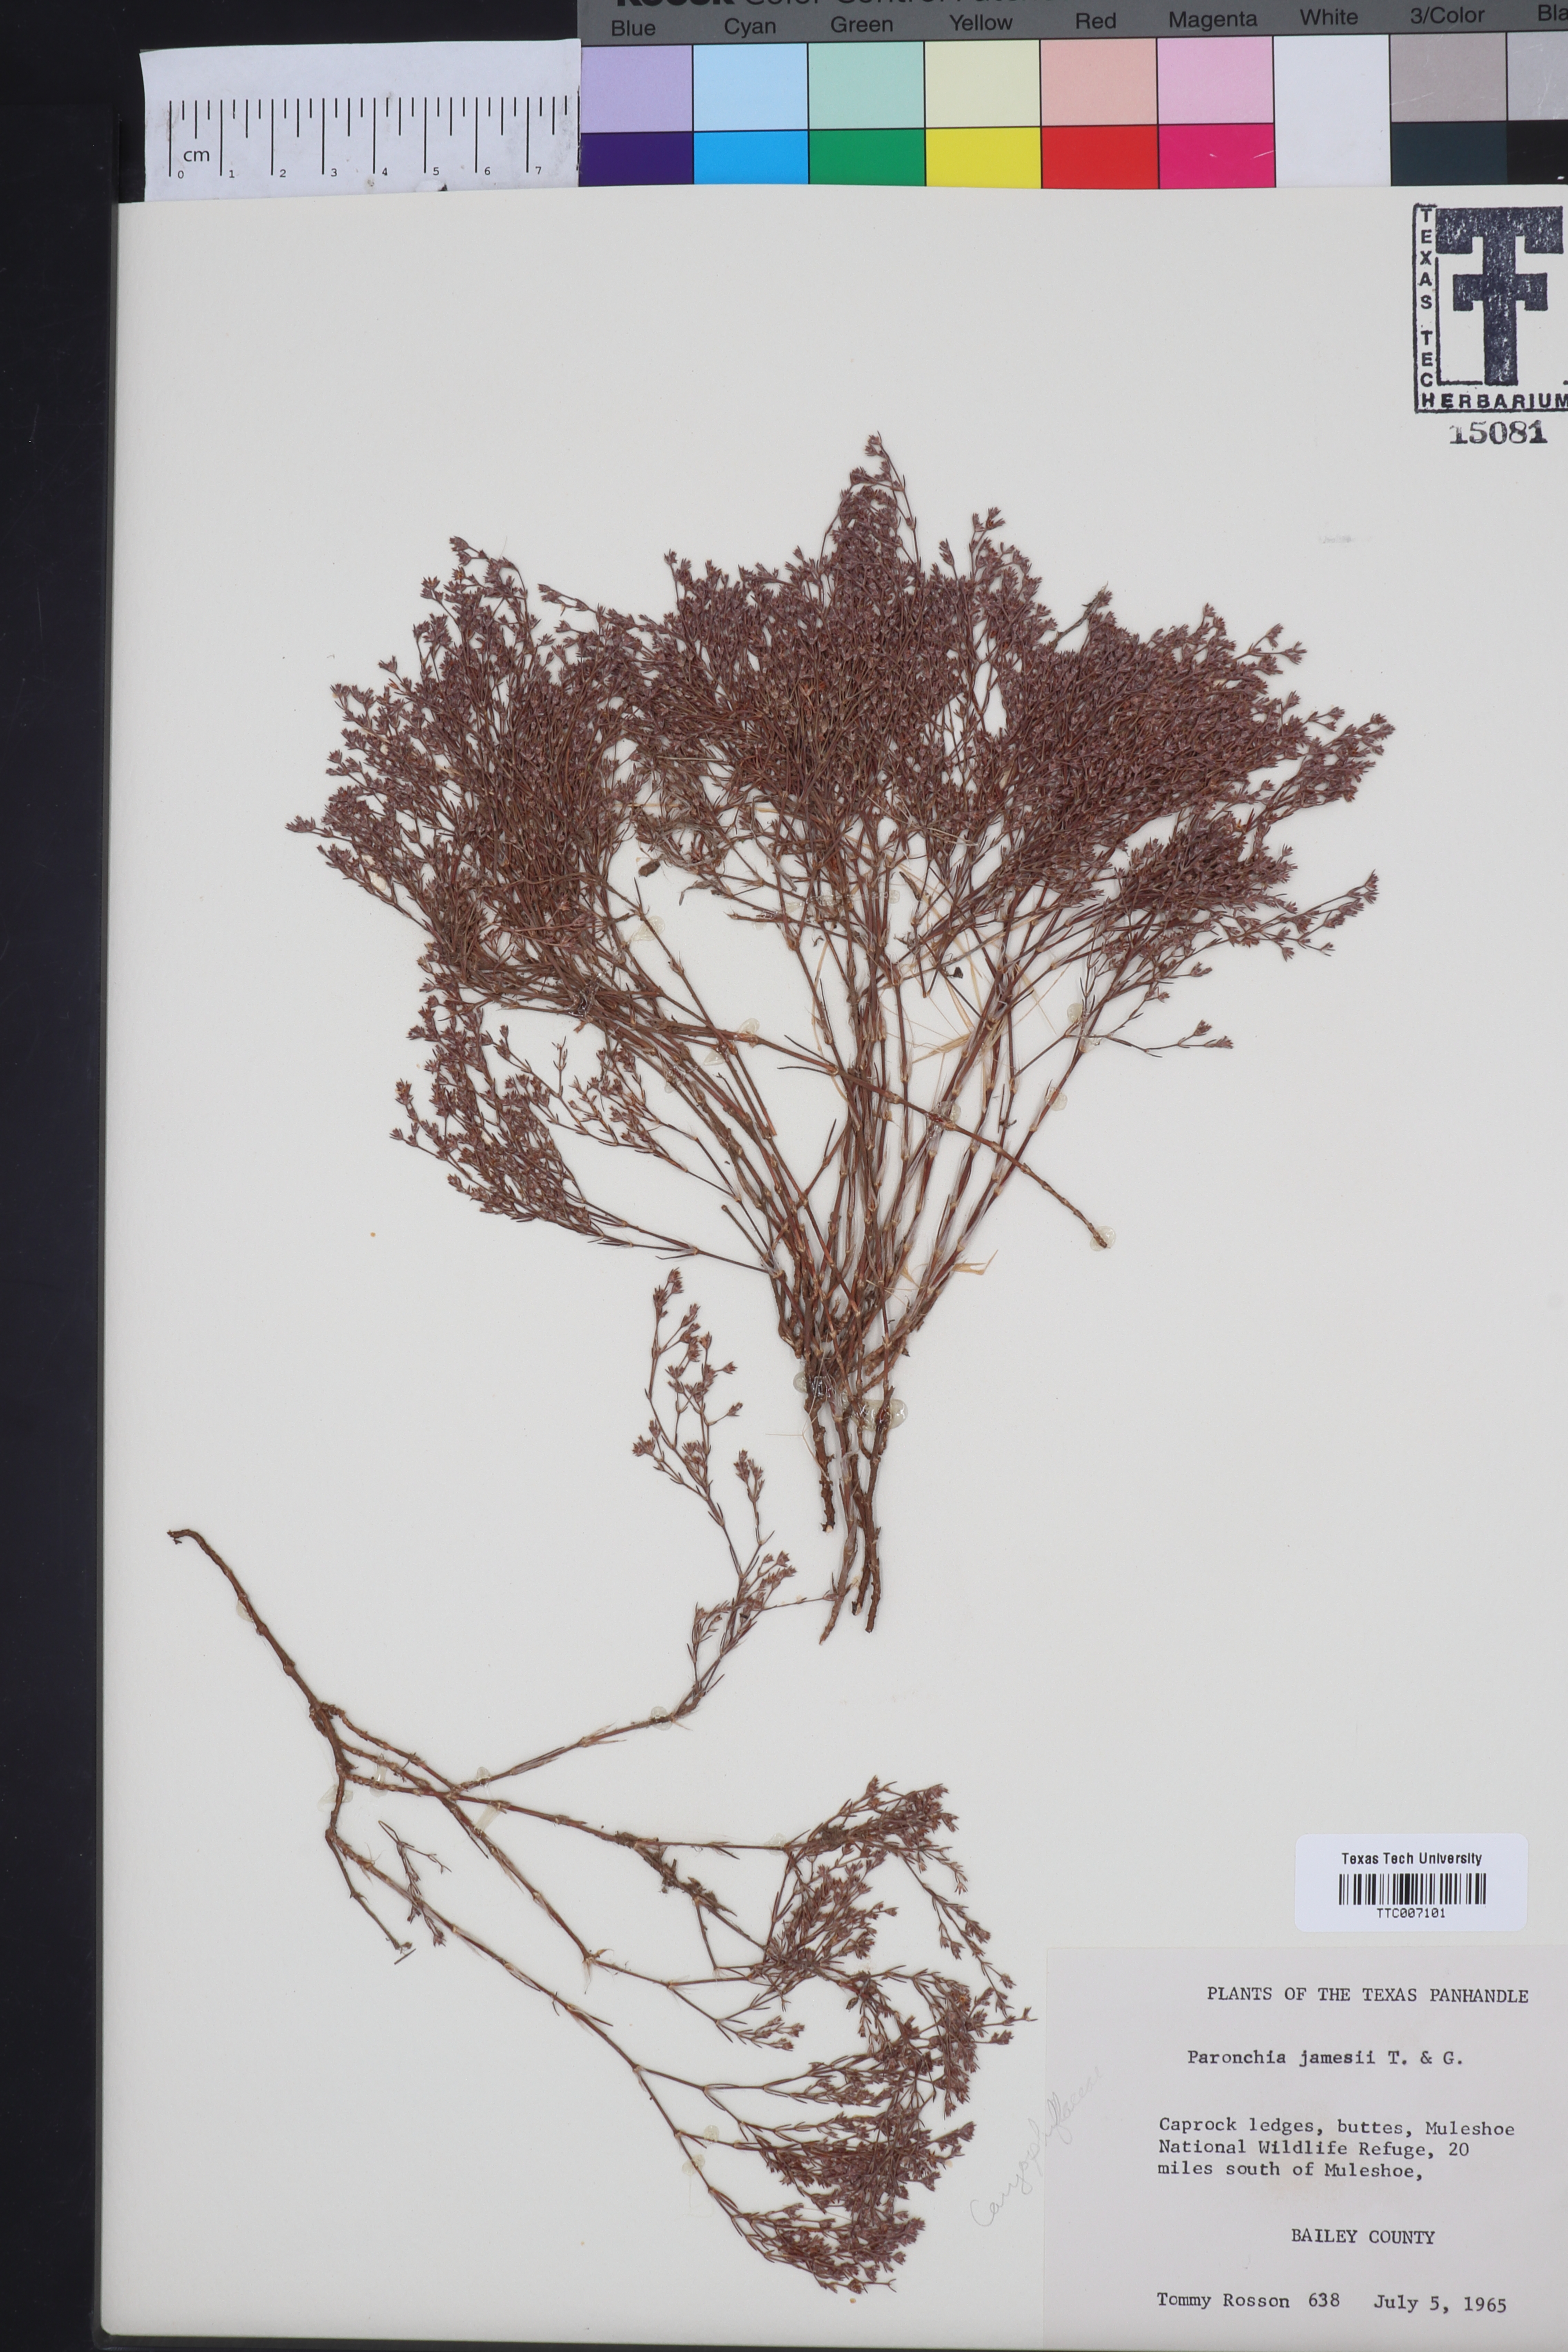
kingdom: Plantae
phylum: Tracheophyta
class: Magnoliopsida
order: Caryophyllales
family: Caryophyllaceae
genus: Paronychia
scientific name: Paronychia jamesii
